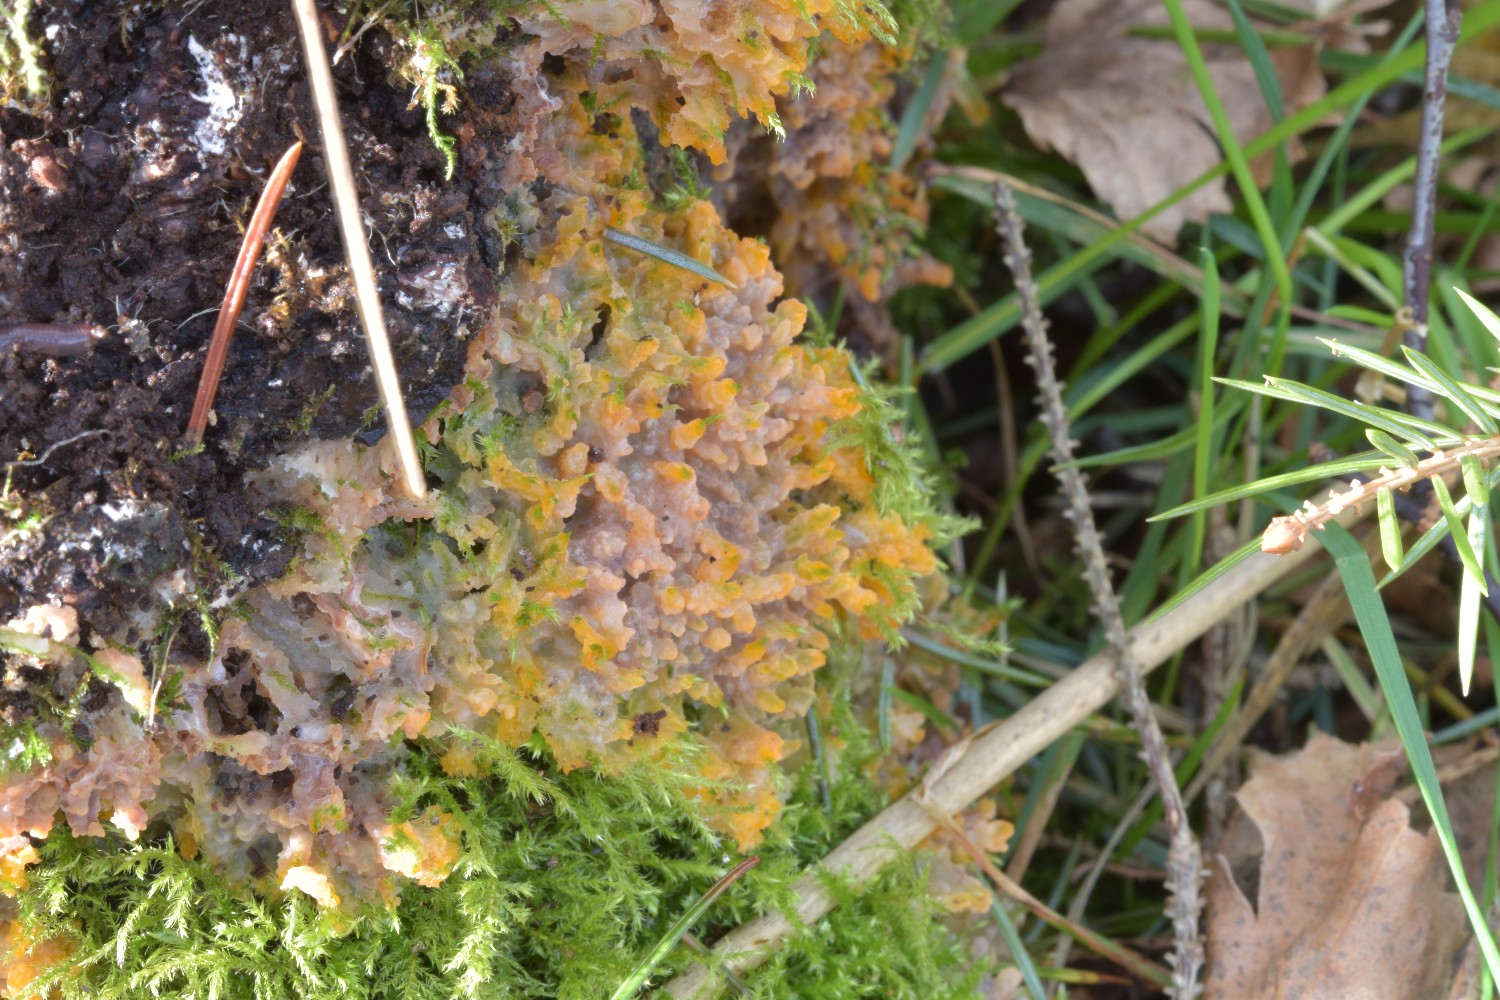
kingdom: Fungi
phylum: Basidiomycota
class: Agaricomycetes
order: Polyporales
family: Meruliaceae
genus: Phlebia
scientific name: Phlebia radiata
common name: stråle-åresvamp
